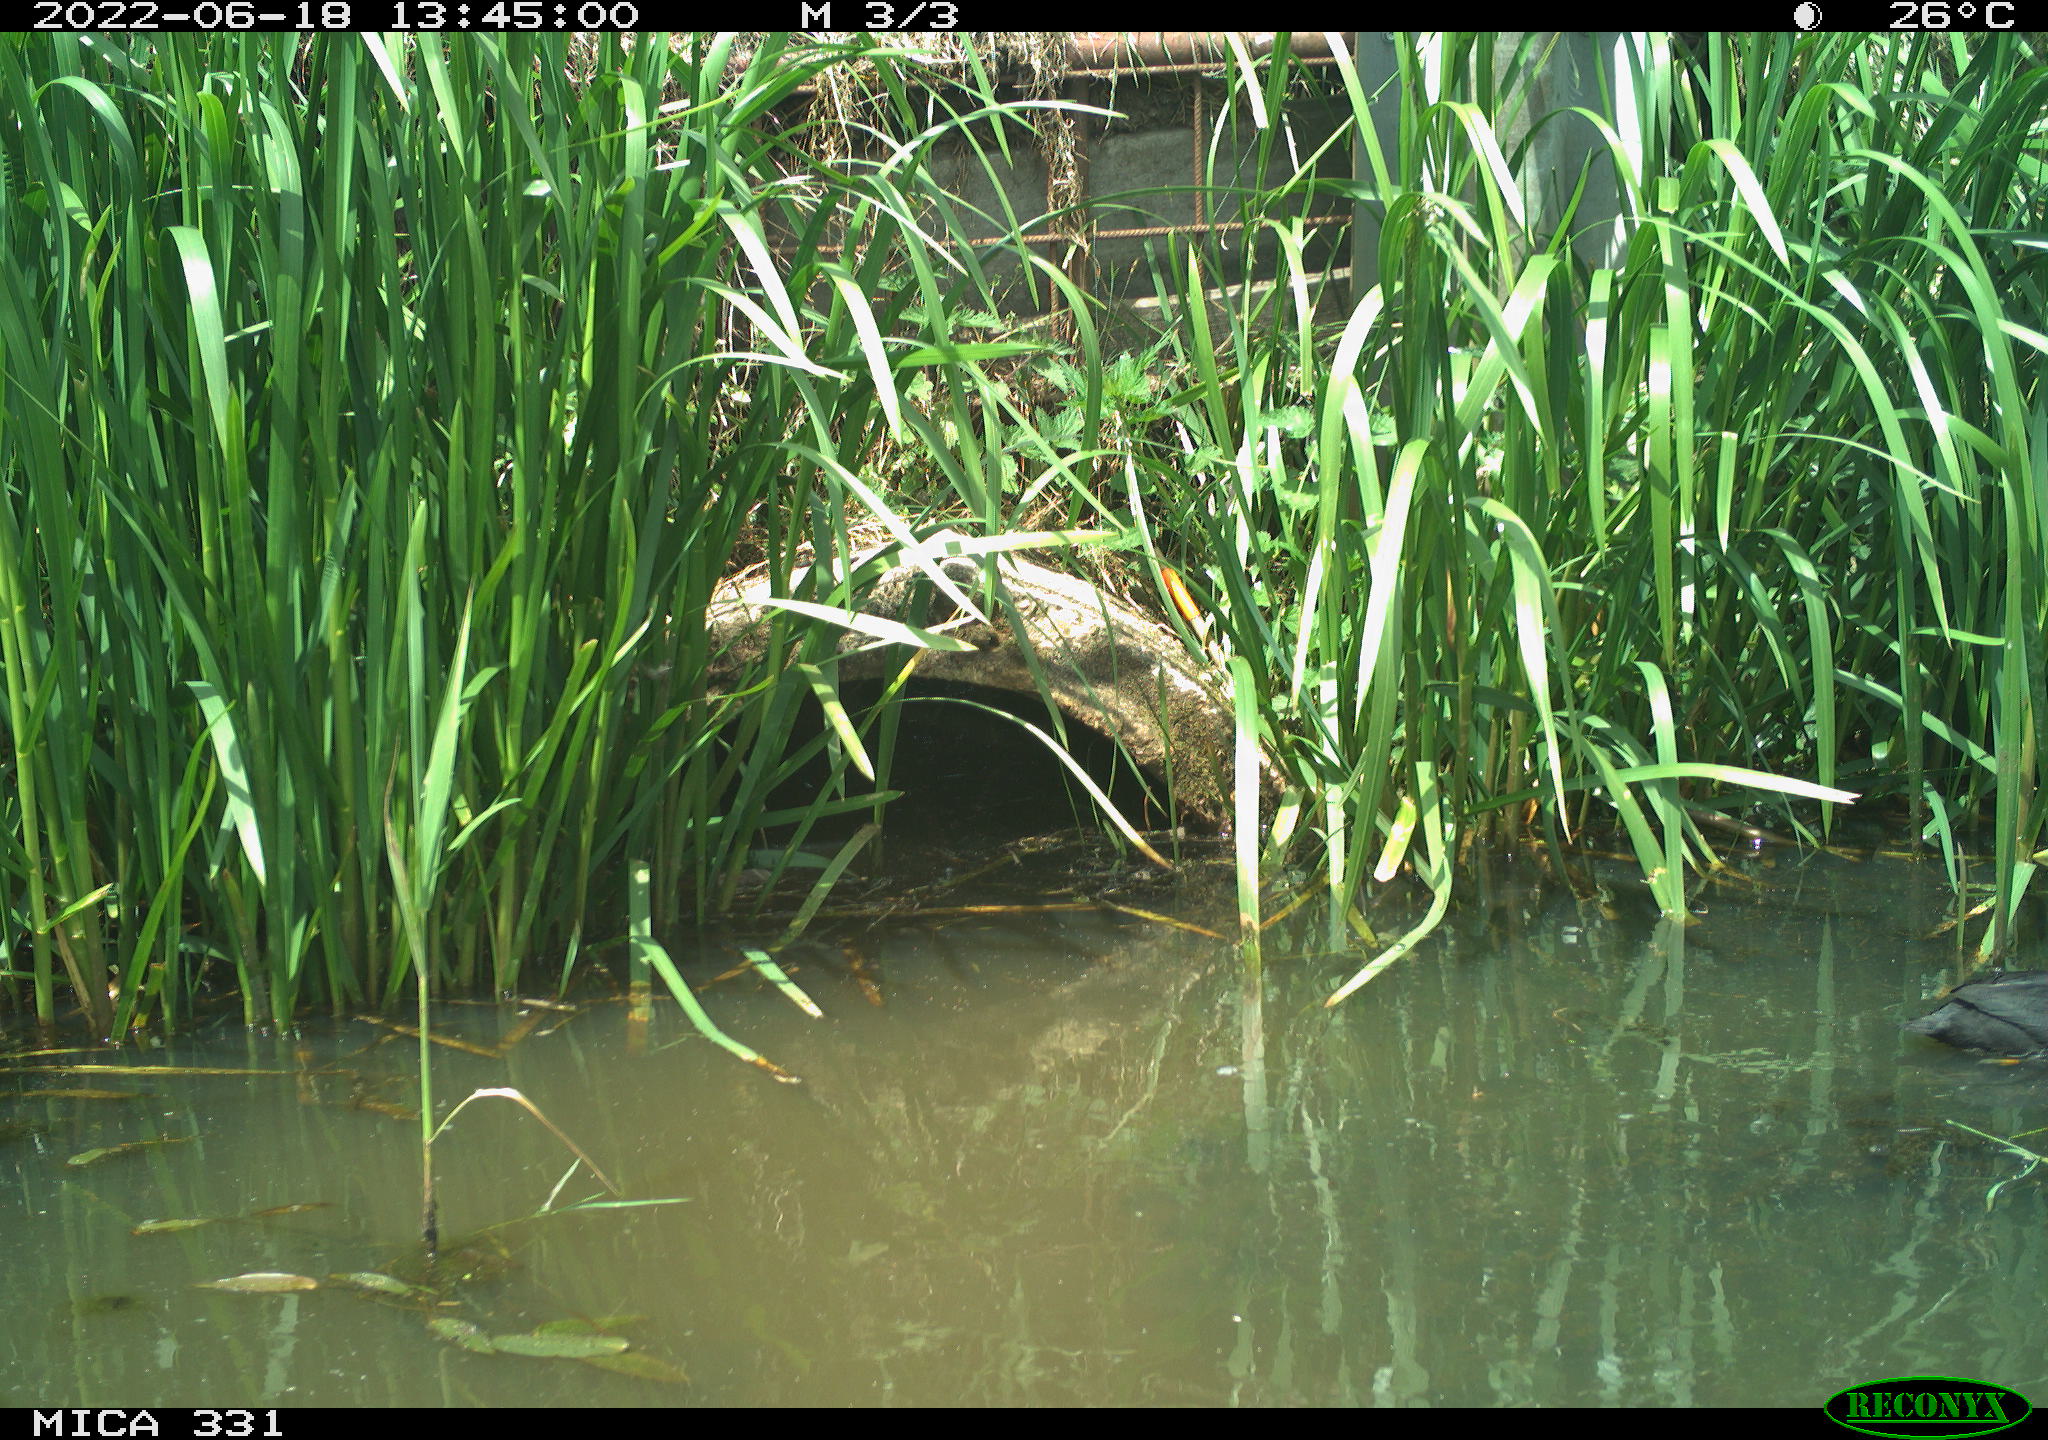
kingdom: Animalia
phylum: Chordata
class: Aves
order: Gruiformes
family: Rallidae
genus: Fulica
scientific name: Fulica atra
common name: Eurasian coot
